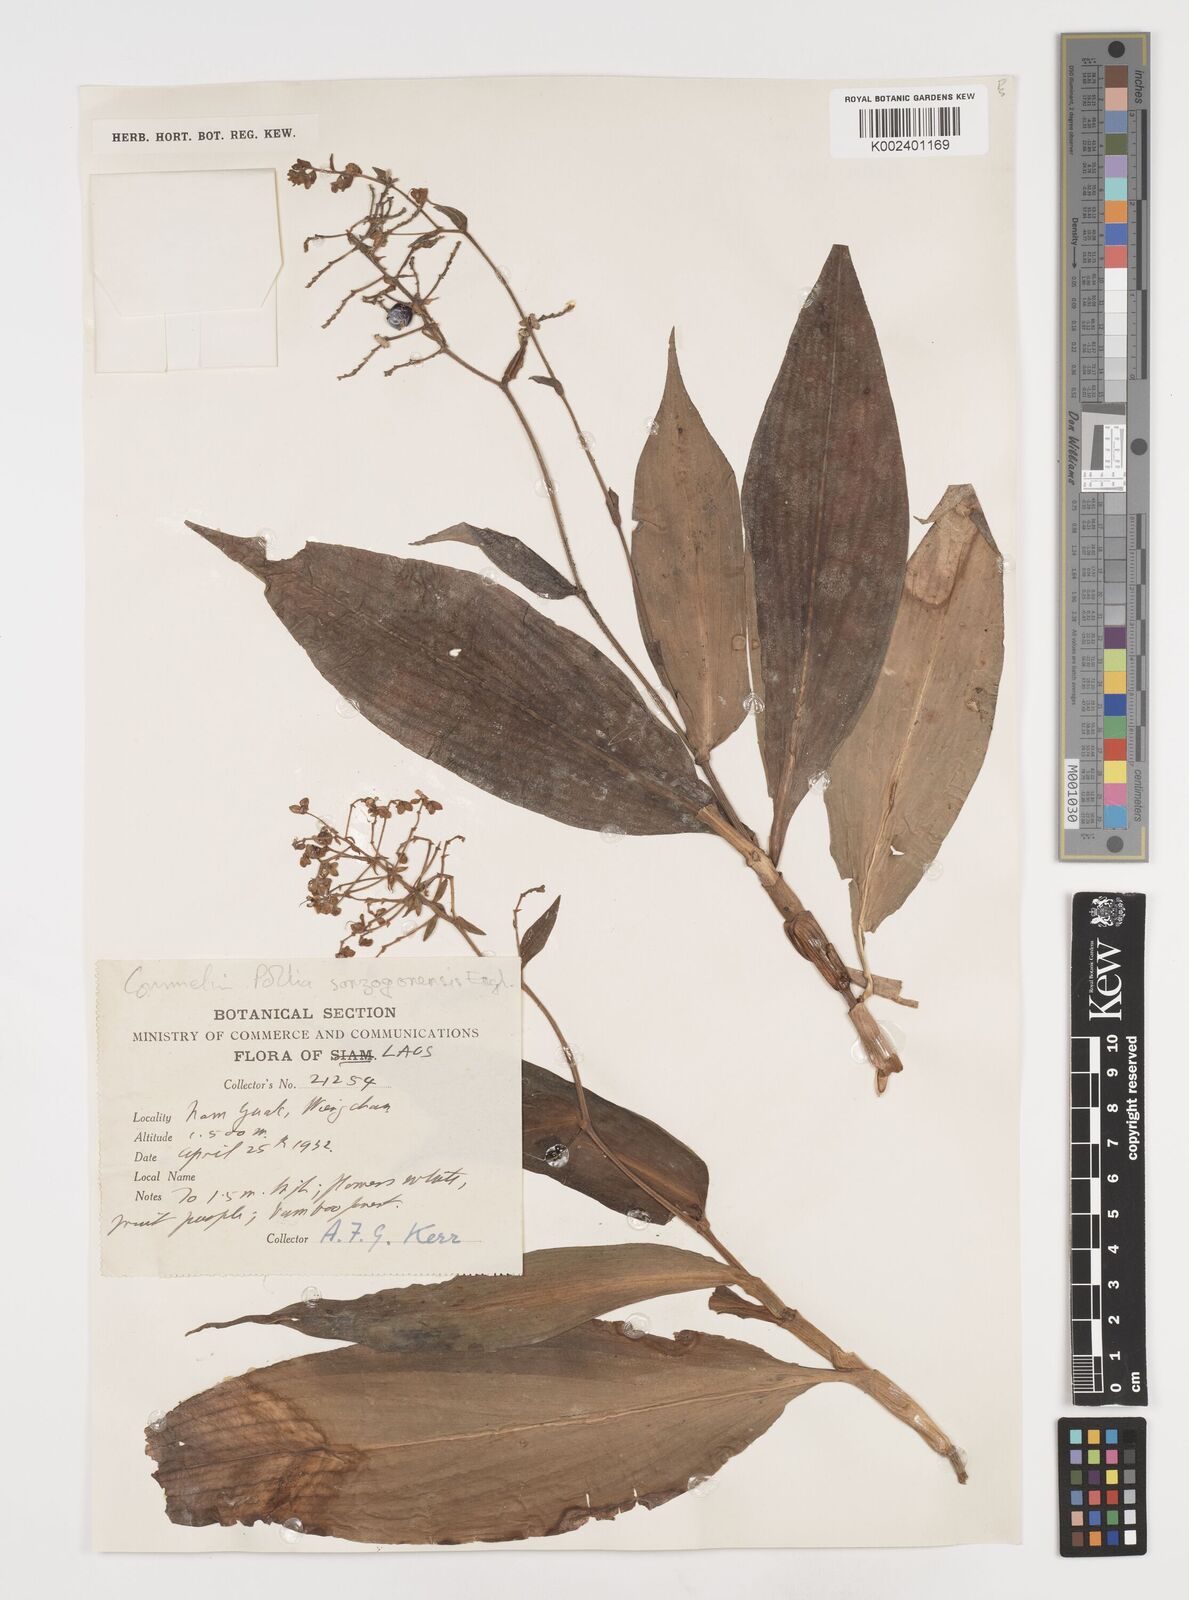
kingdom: Plantae
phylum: Tracheophyta
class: Liliopsida
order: Commelinales
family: Commelinaceae
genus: Pollia
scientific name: Pollia secundiflora
